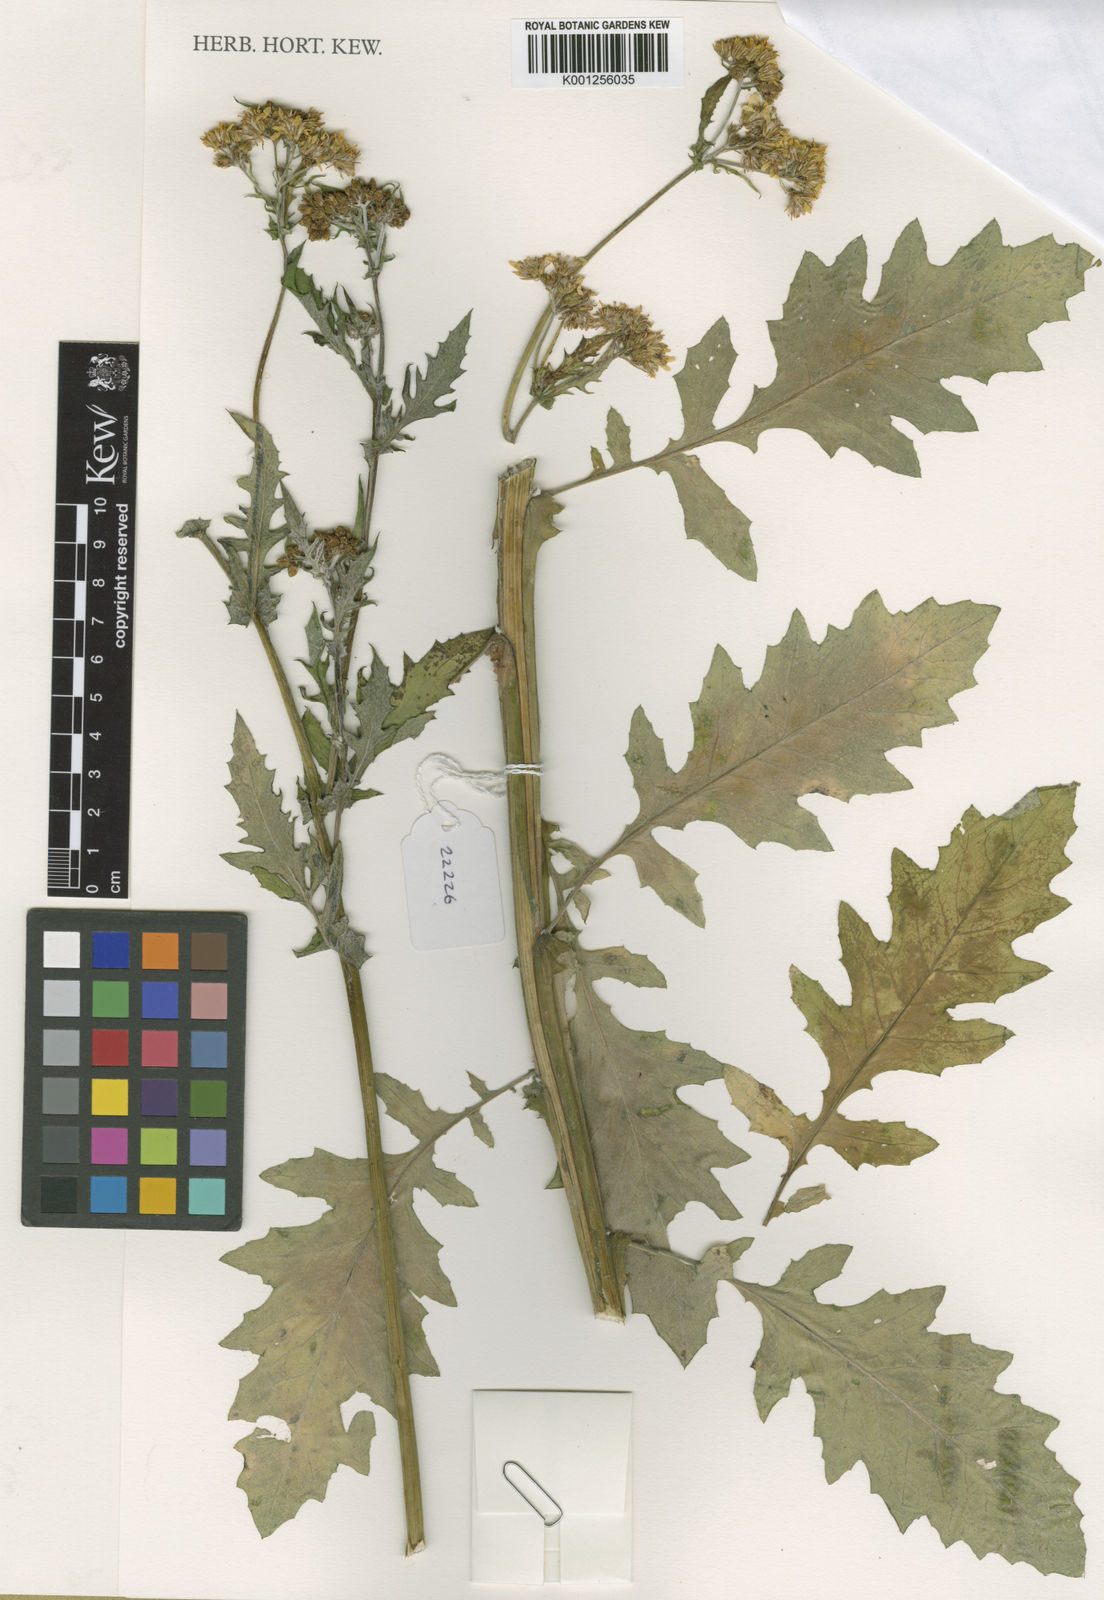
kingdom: Plantae
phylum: Tracheophyta
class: Magnoliopsida
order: Asterales
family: Asteraceae
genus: Senecio
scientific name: Senecio pentapterus
